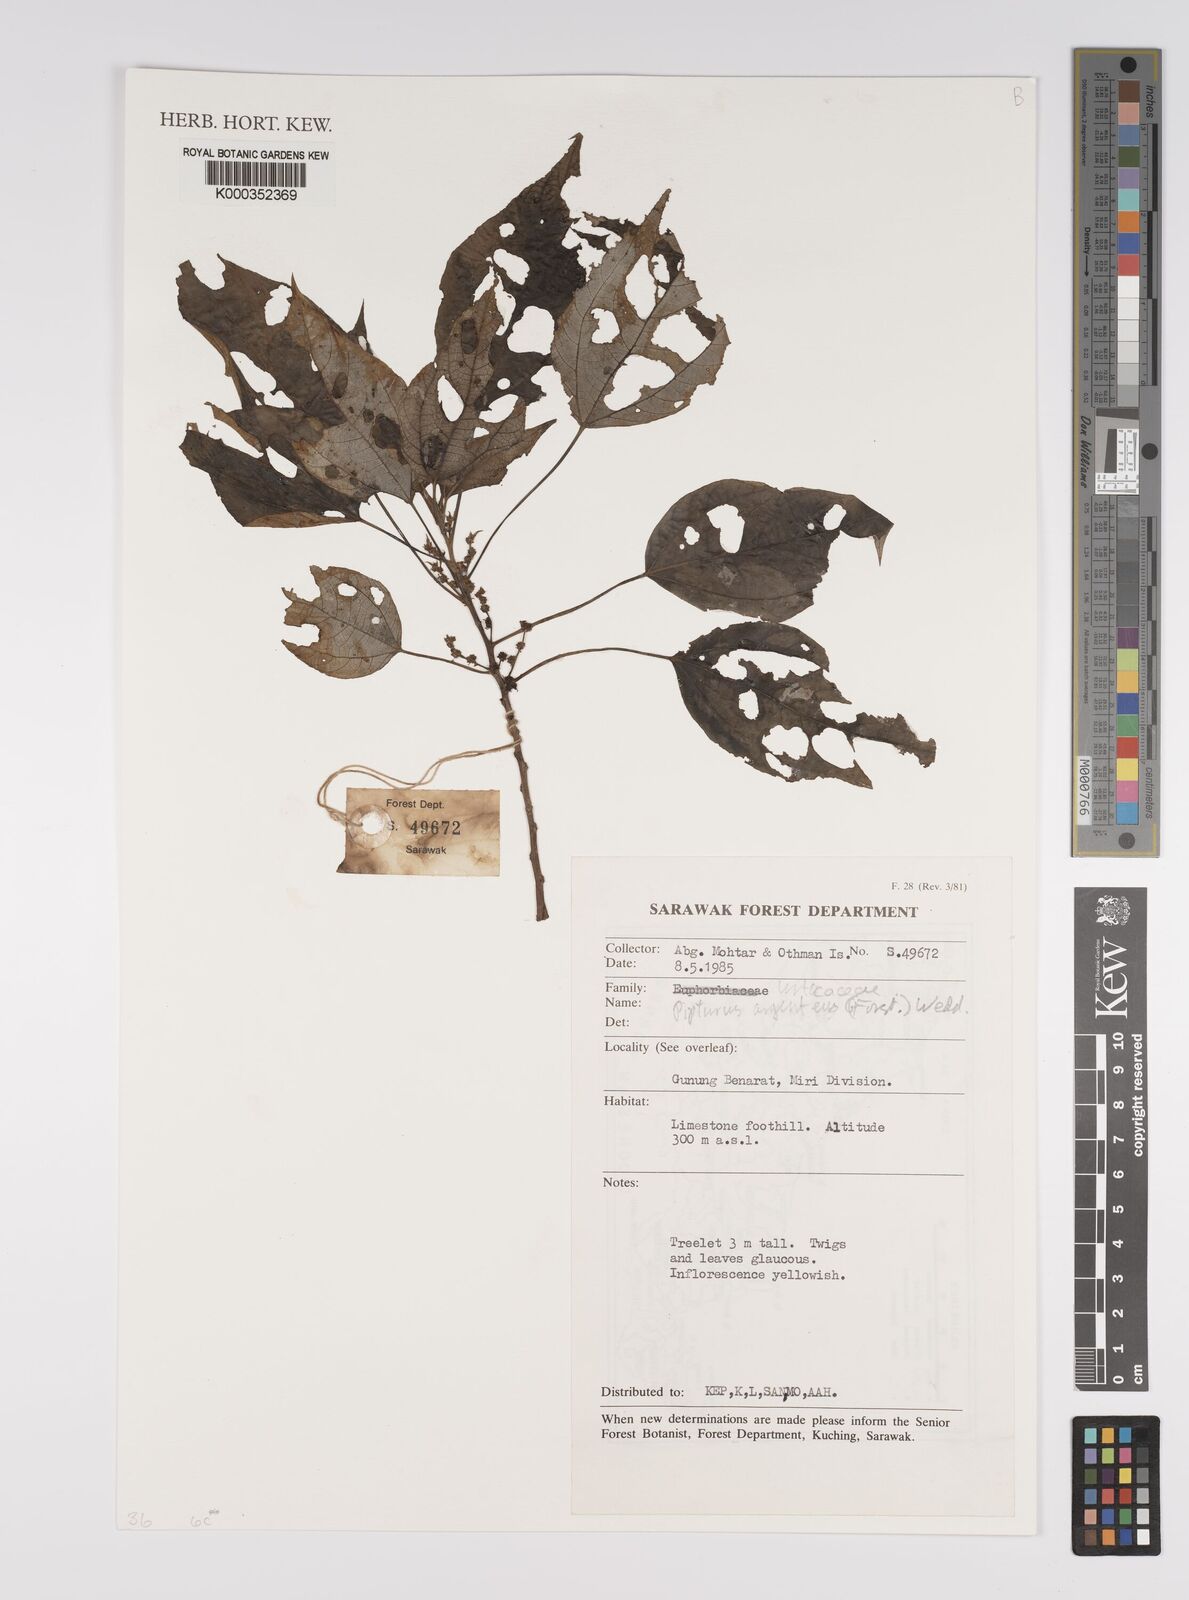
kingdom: Plantae
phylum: Tracheophyta
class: Magnoliopsida
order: Rosales
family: Urticaceae
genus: Pipturus
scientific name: Pipturus argenteus
